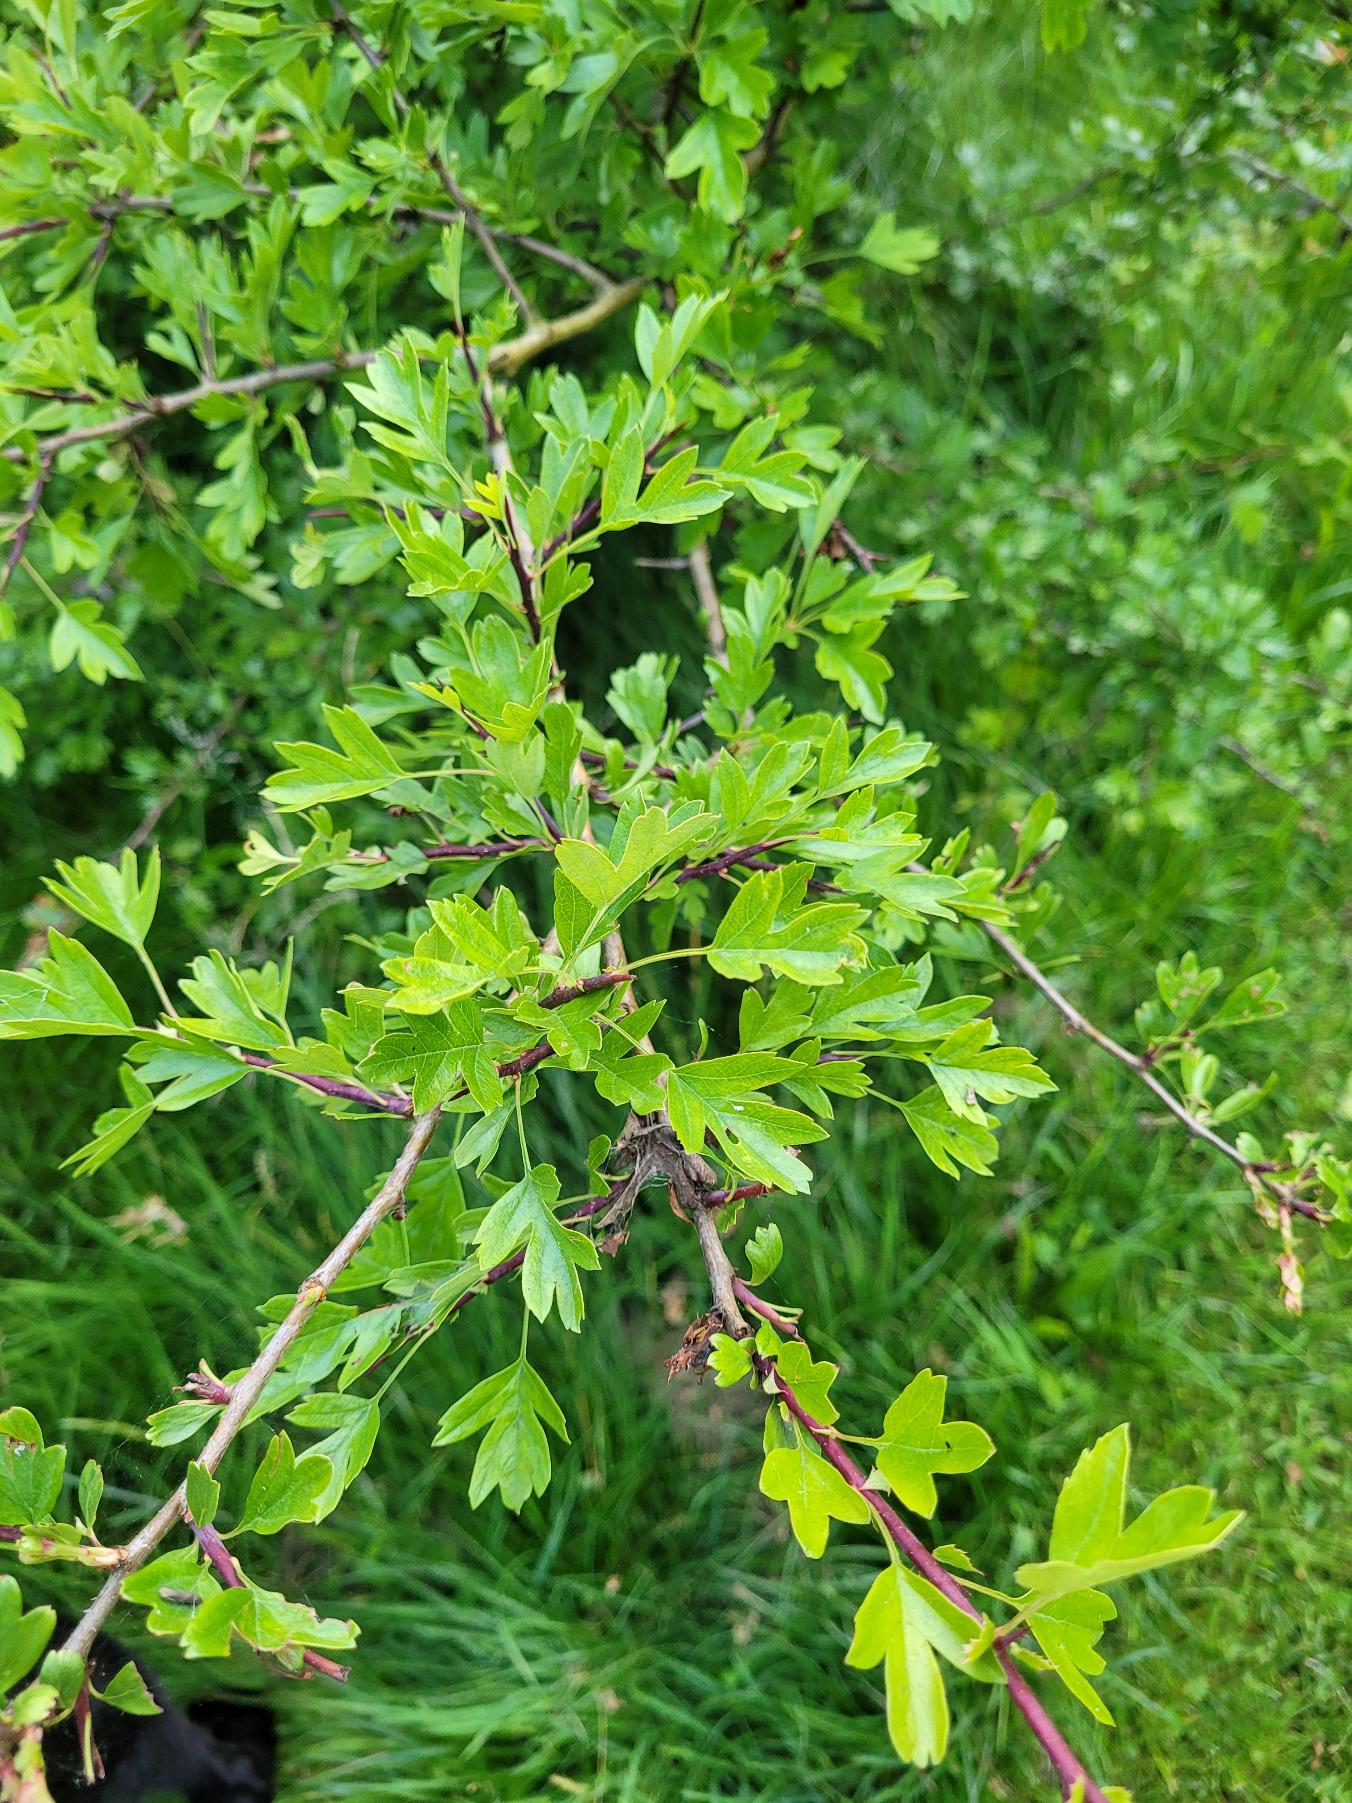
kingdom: Plantae
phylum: Tracheophyta
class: Magnoliopsida
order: Rosales
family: Rosaceae
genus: Crataegus
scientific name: Crataegus monogyna
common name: Engriflet hvidtjørn
